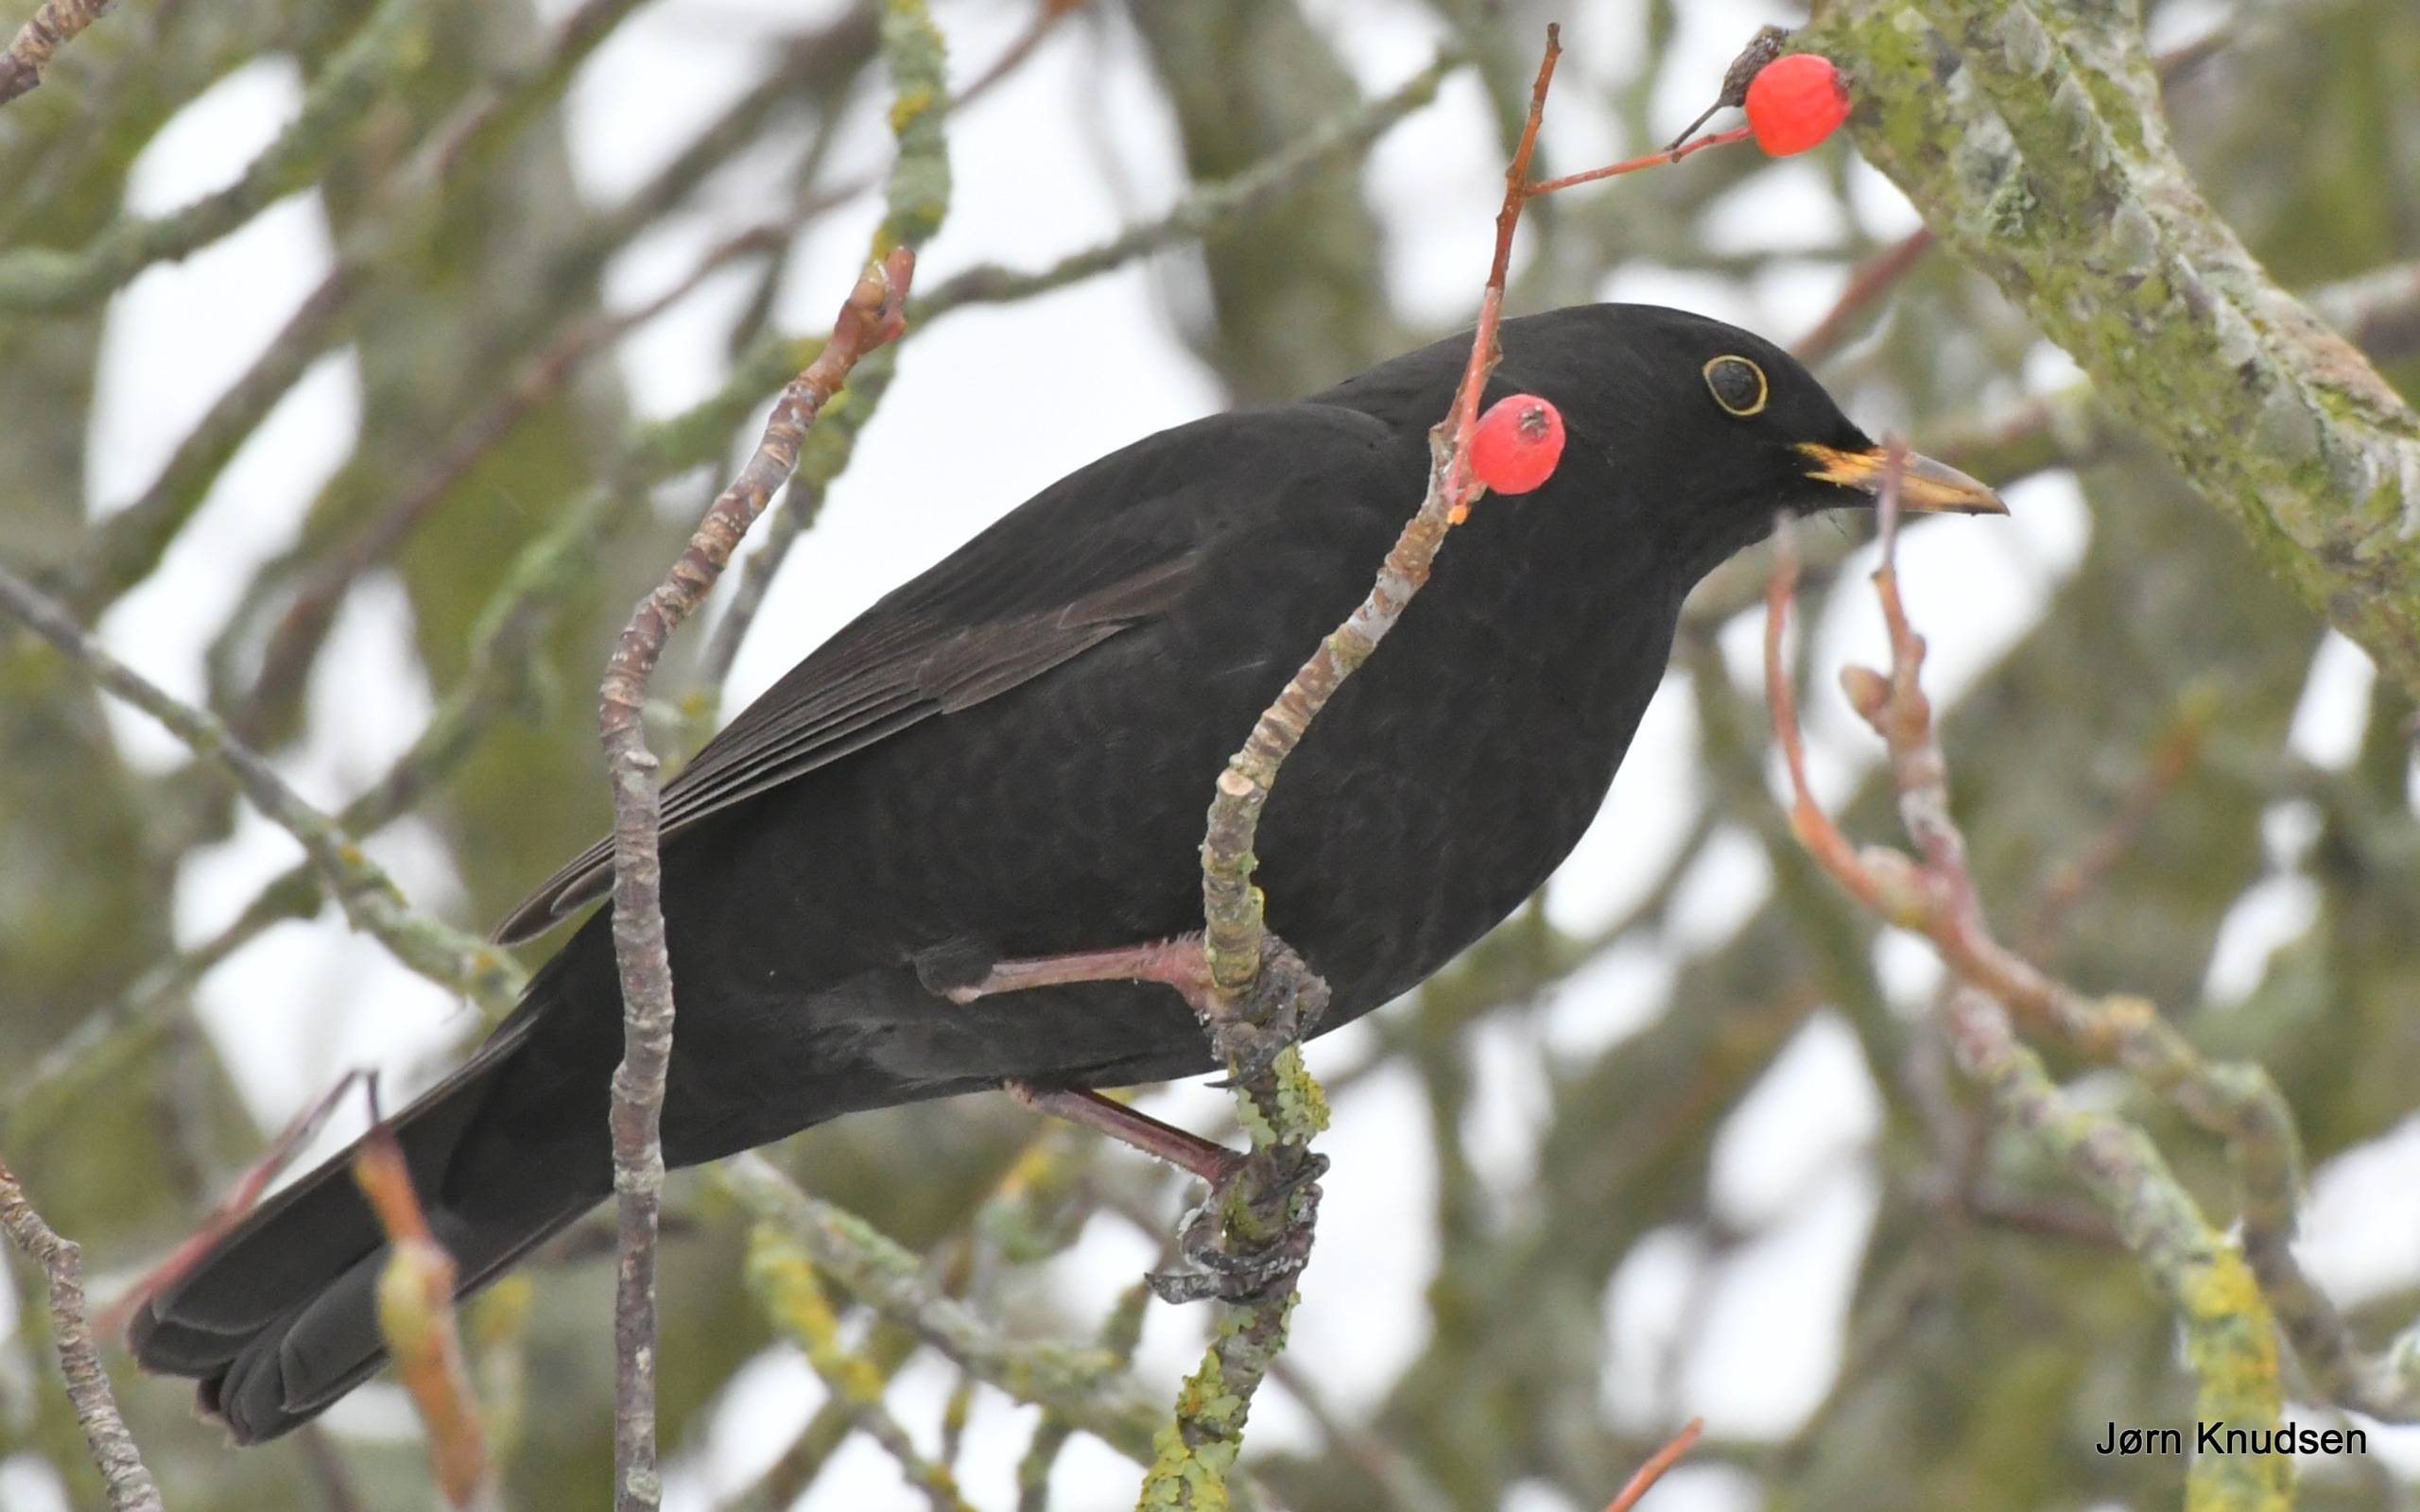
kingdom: Animalia
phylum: Chordata
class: Aves
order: Passeriformes
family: Turdidae
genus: Turdus
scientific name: Turdus merula
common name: Solsort
